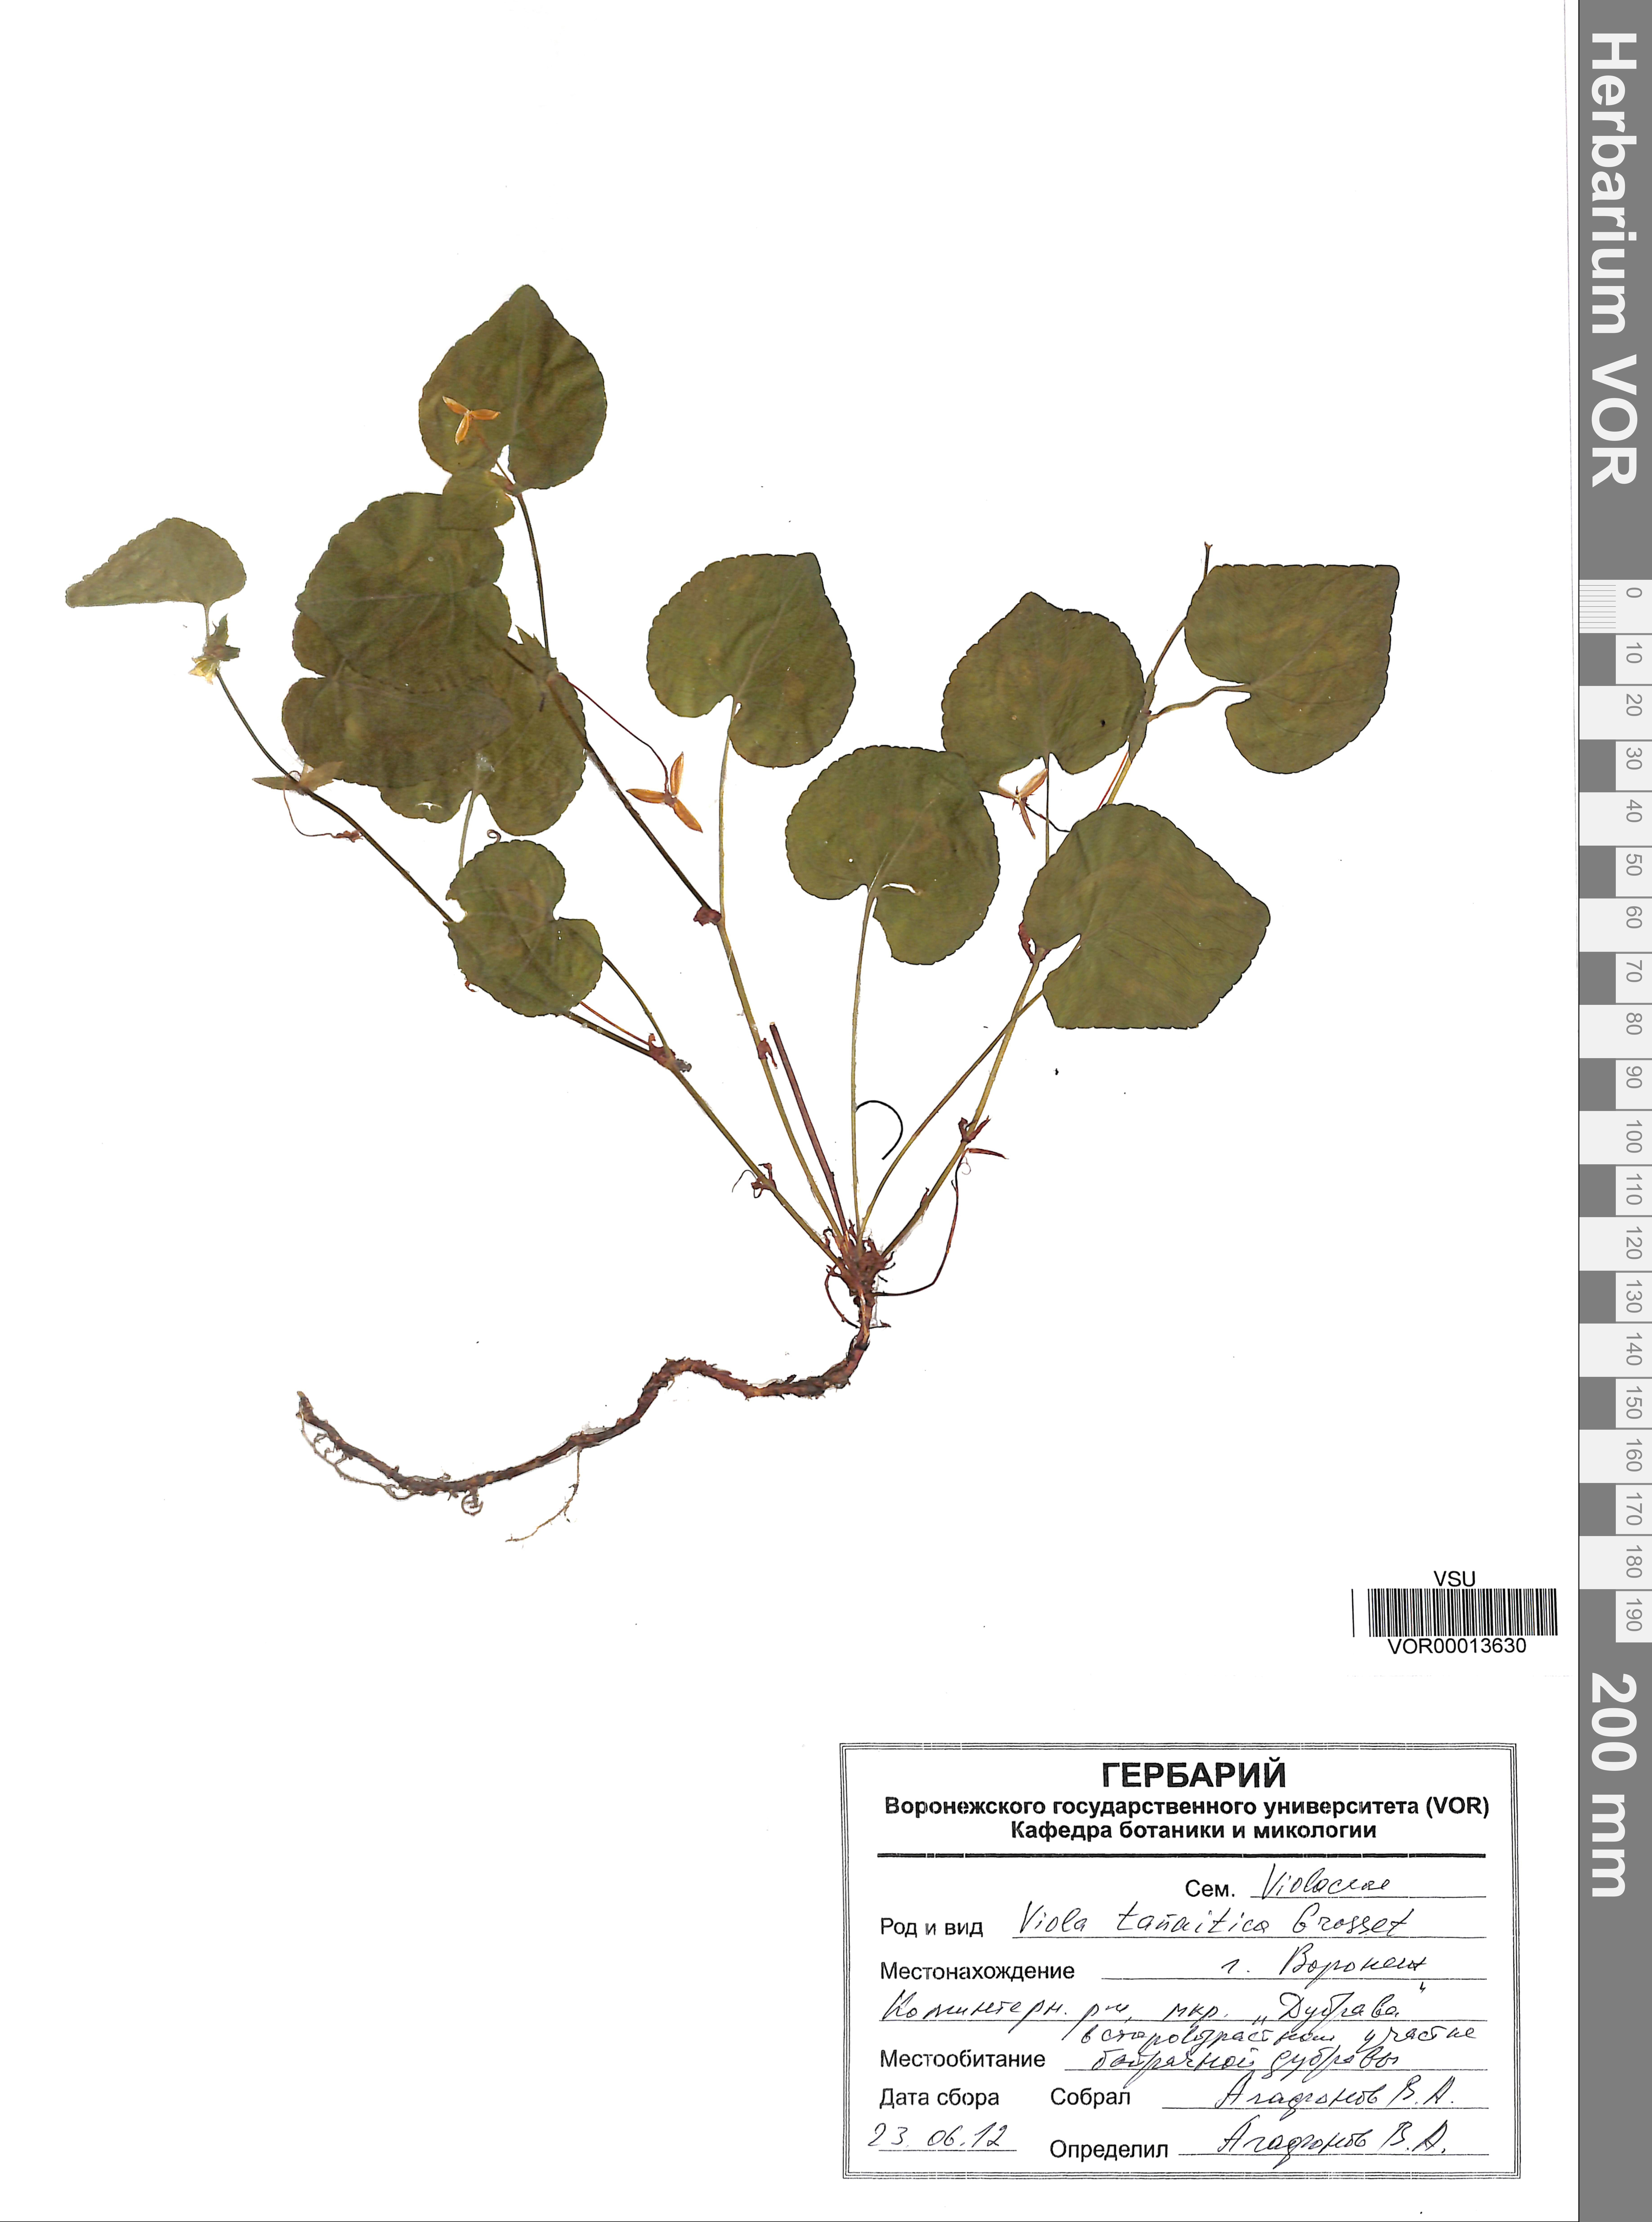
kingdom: Plantae
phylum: Tracheophyta
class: Magnoliopsida
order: Malpighiales
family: Violaceae
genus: Viola
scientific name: Viola tanaitica
